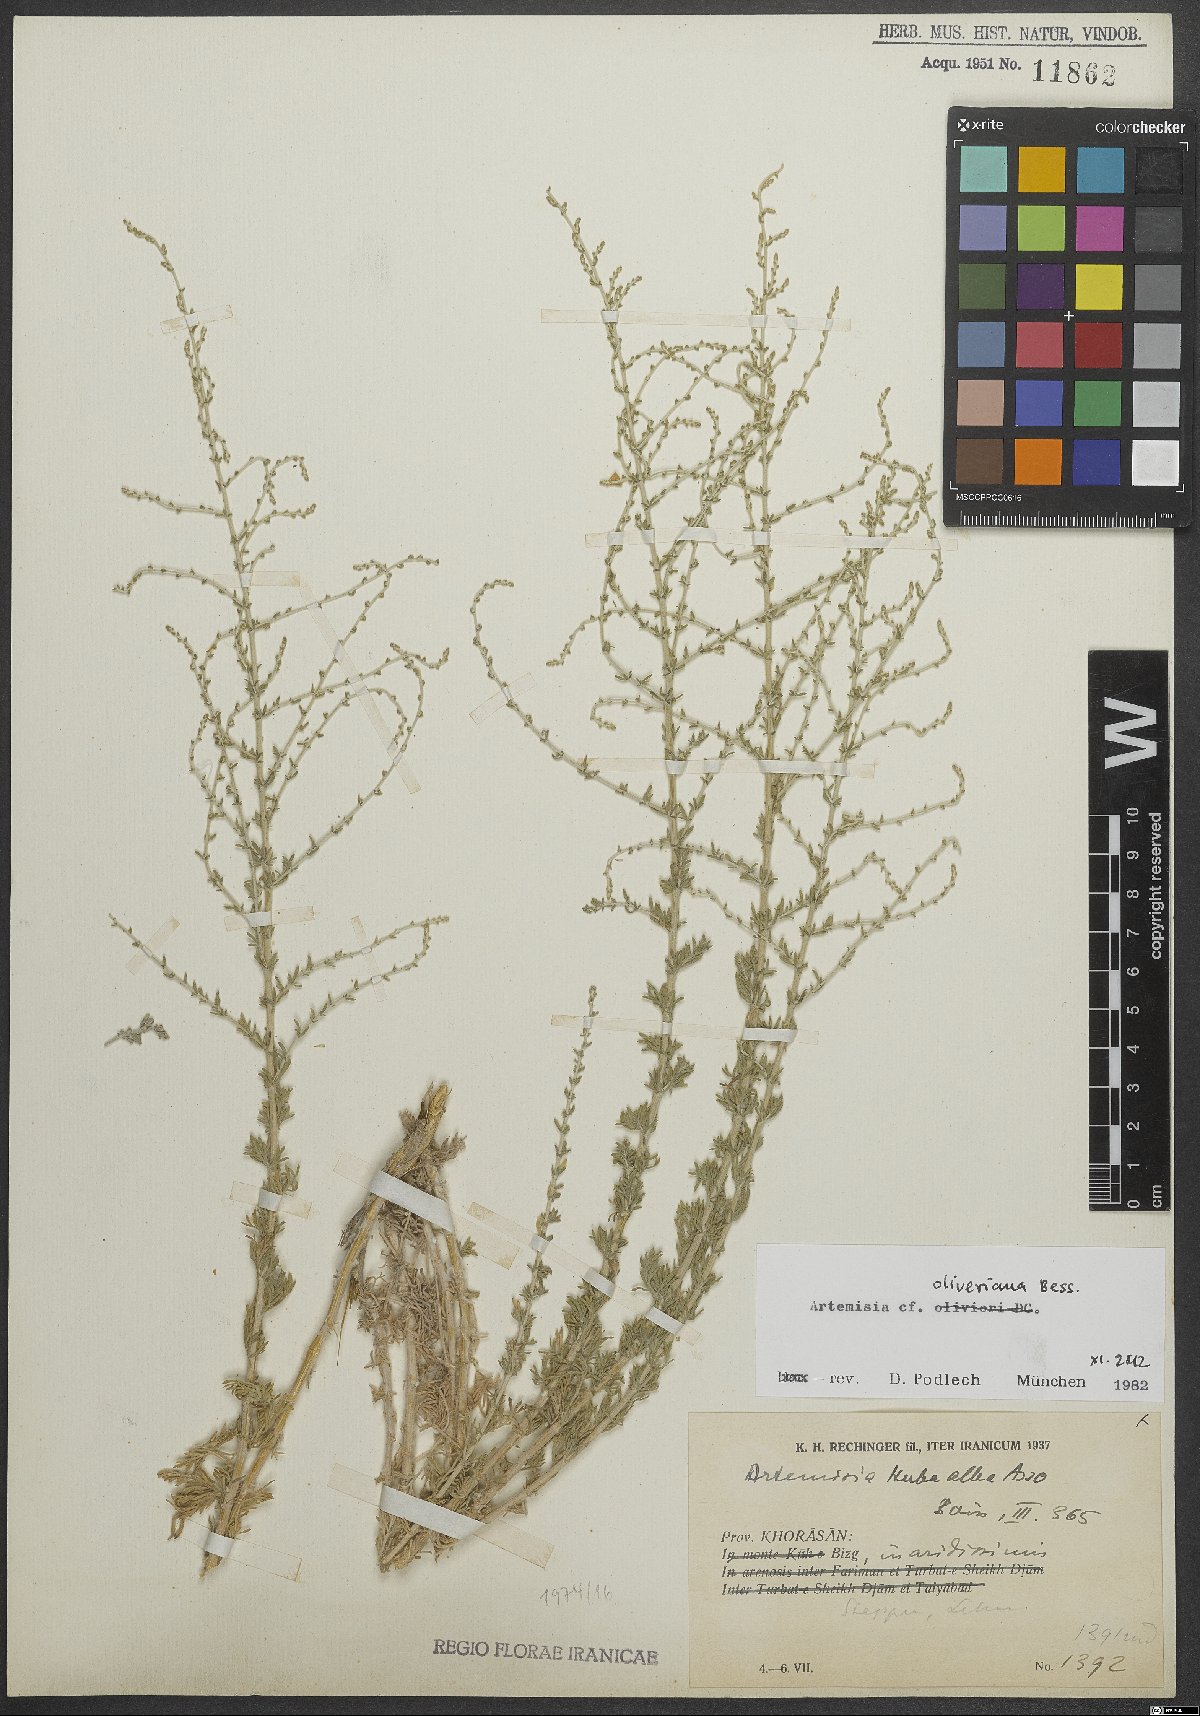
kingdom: Plantae
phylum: Tracheophyta
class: Magnoliopsida
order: Asterales
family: Asteraceae
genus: Artemisia
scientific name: Artemisia oliveriana
